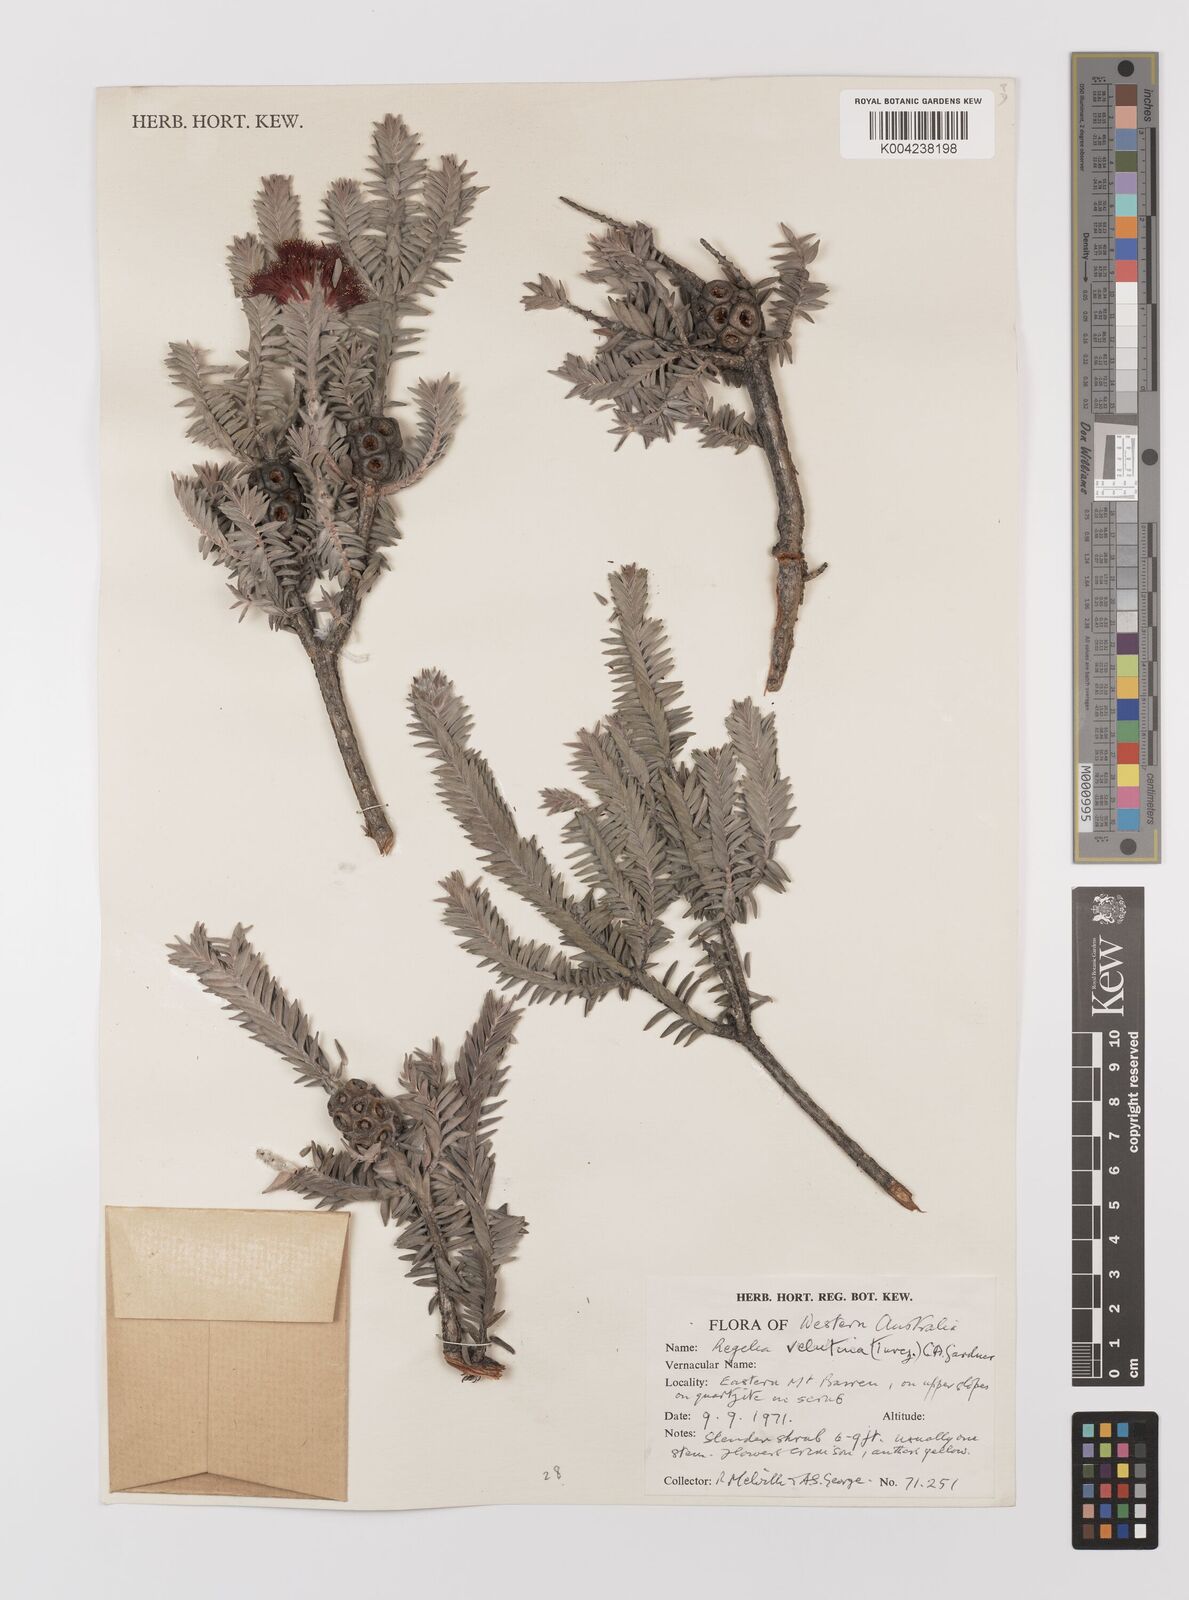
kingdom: Plantae
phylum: Tracheophyta
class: Magnoliopsida
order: Myrtales
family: Myrtaceae
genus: Melaleuca
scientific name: Melaleuca velutina
